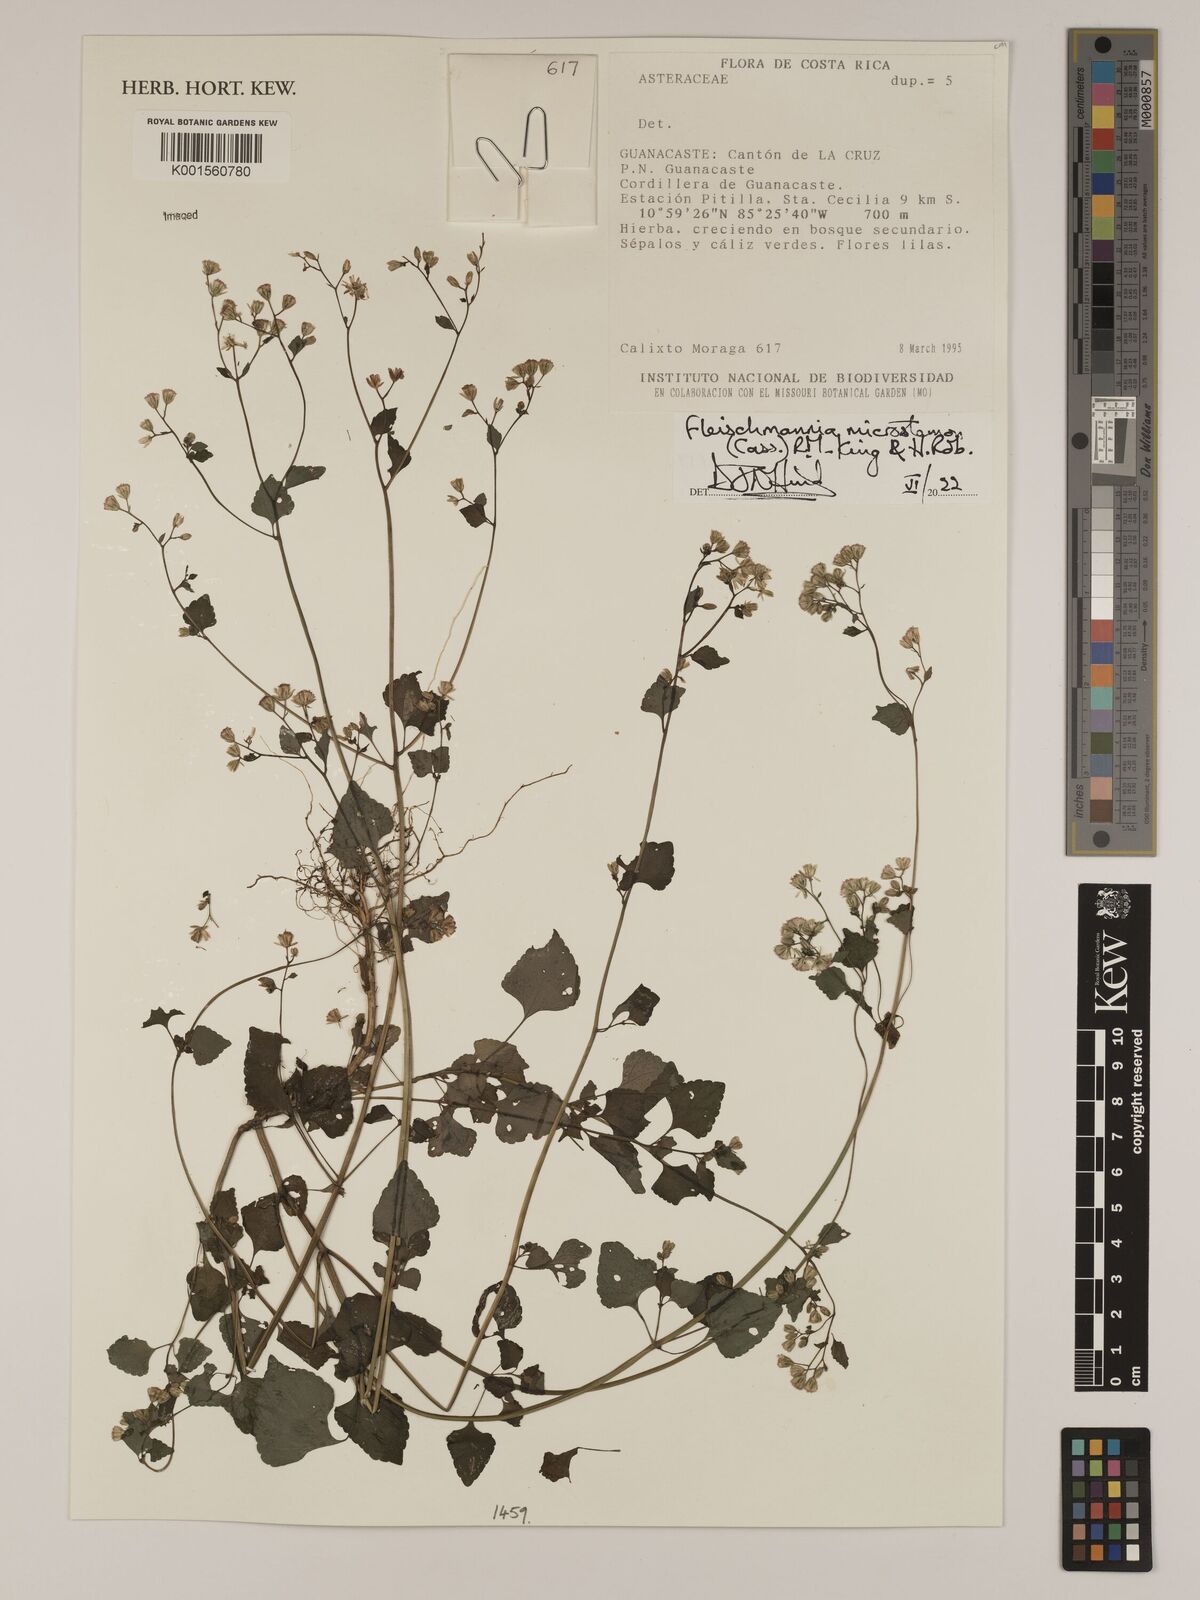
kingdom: Plantae
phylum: Tracheophyta
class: Magnoliopsida
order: Asterales
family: Asteraceae
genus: Fleischmannia
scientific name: Fleischmannia microstemon
